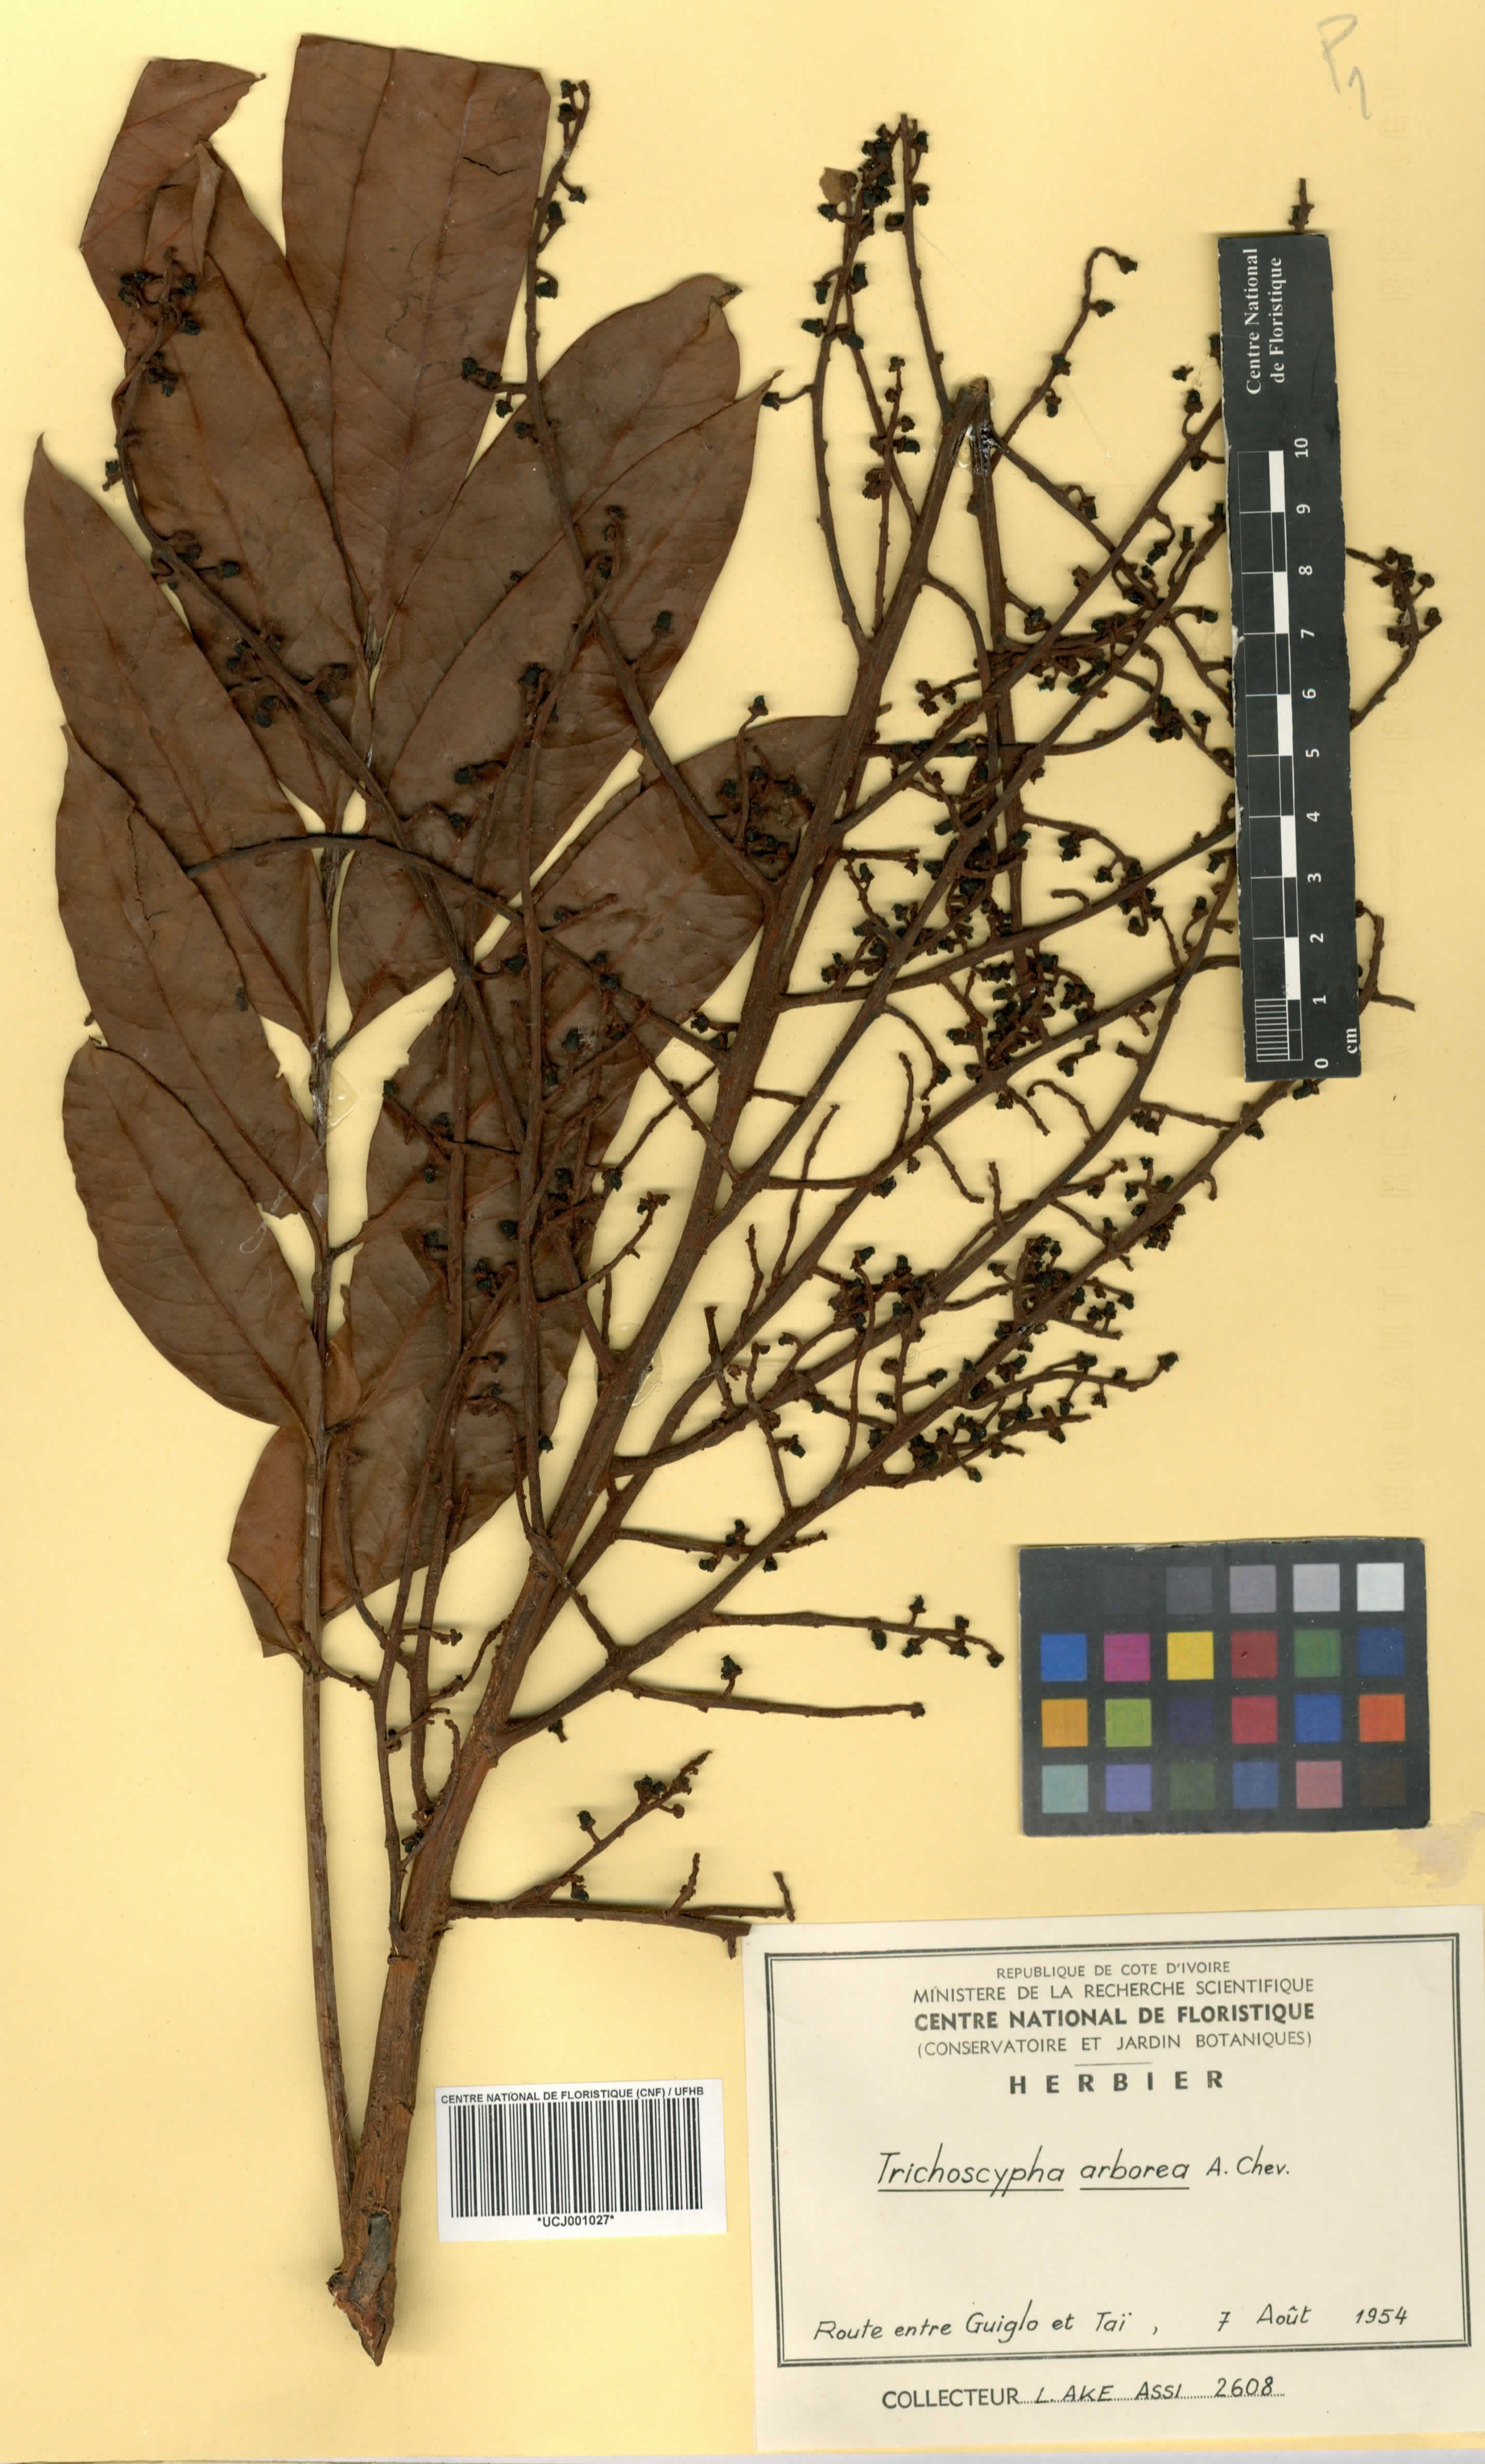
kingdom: Plantae
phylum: Tracheophyta
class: Magnoliopsida
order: Sapindales
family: Anacardiaceae
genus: Trichoscypha
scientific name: Trichoscypha arborea
